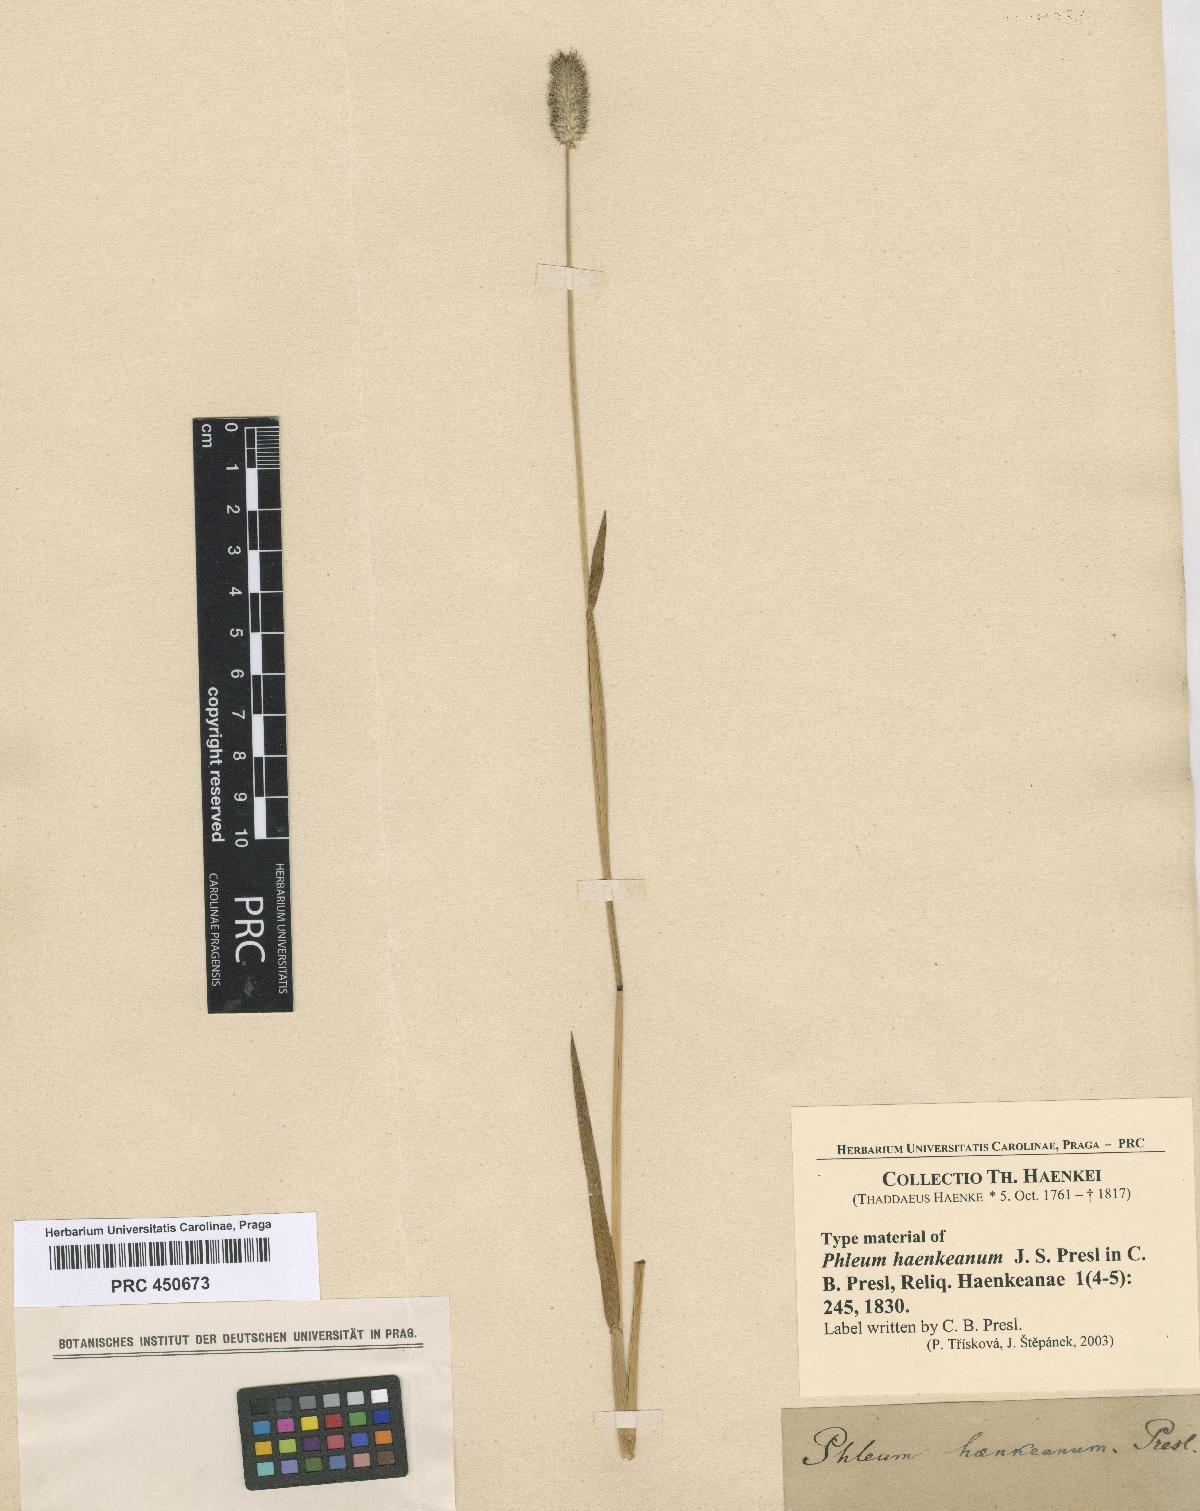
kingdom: Plantae
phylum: Tracheophyta
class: Liliopsida
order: Poales
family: Poaceae
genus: Phleum
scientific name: Phleum alpinum
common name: Alpine cat's-tail
